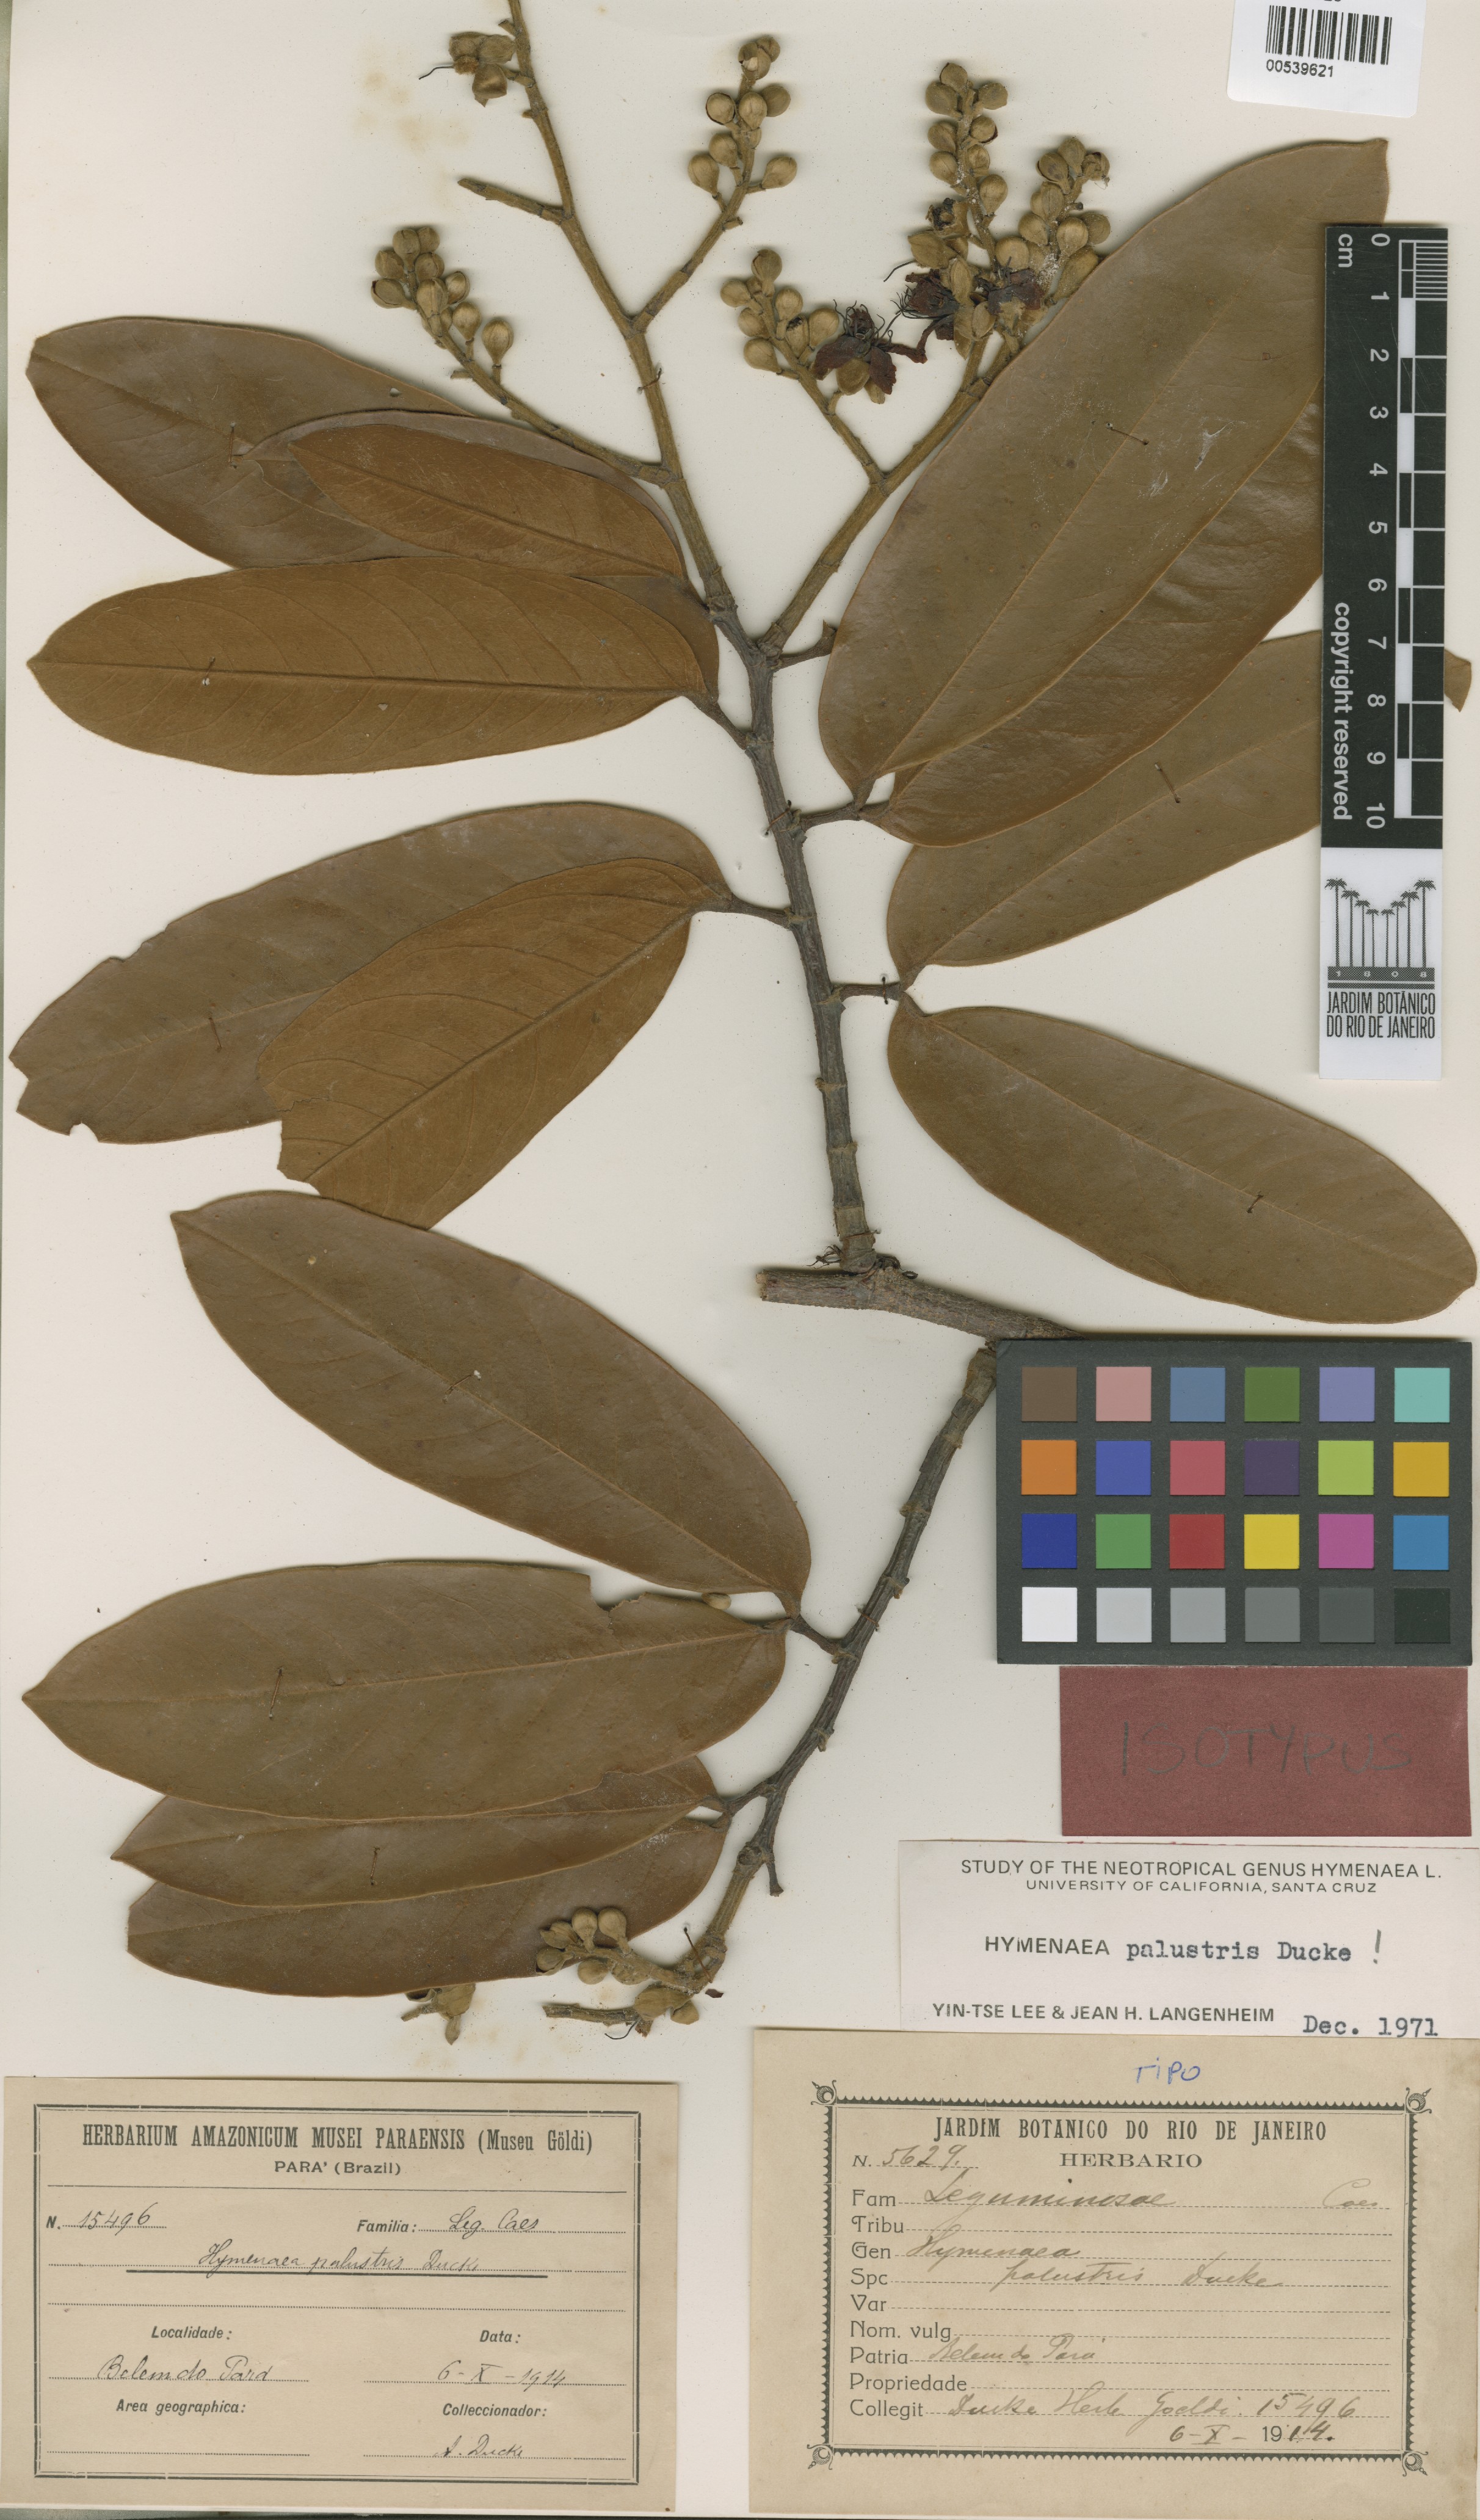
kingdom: Plantae
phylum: Tracheophyta
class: Magnoliopsida
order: Fabales
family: Fabaceae
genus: Hymenaea
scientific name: Hymenaea oblongifolia
